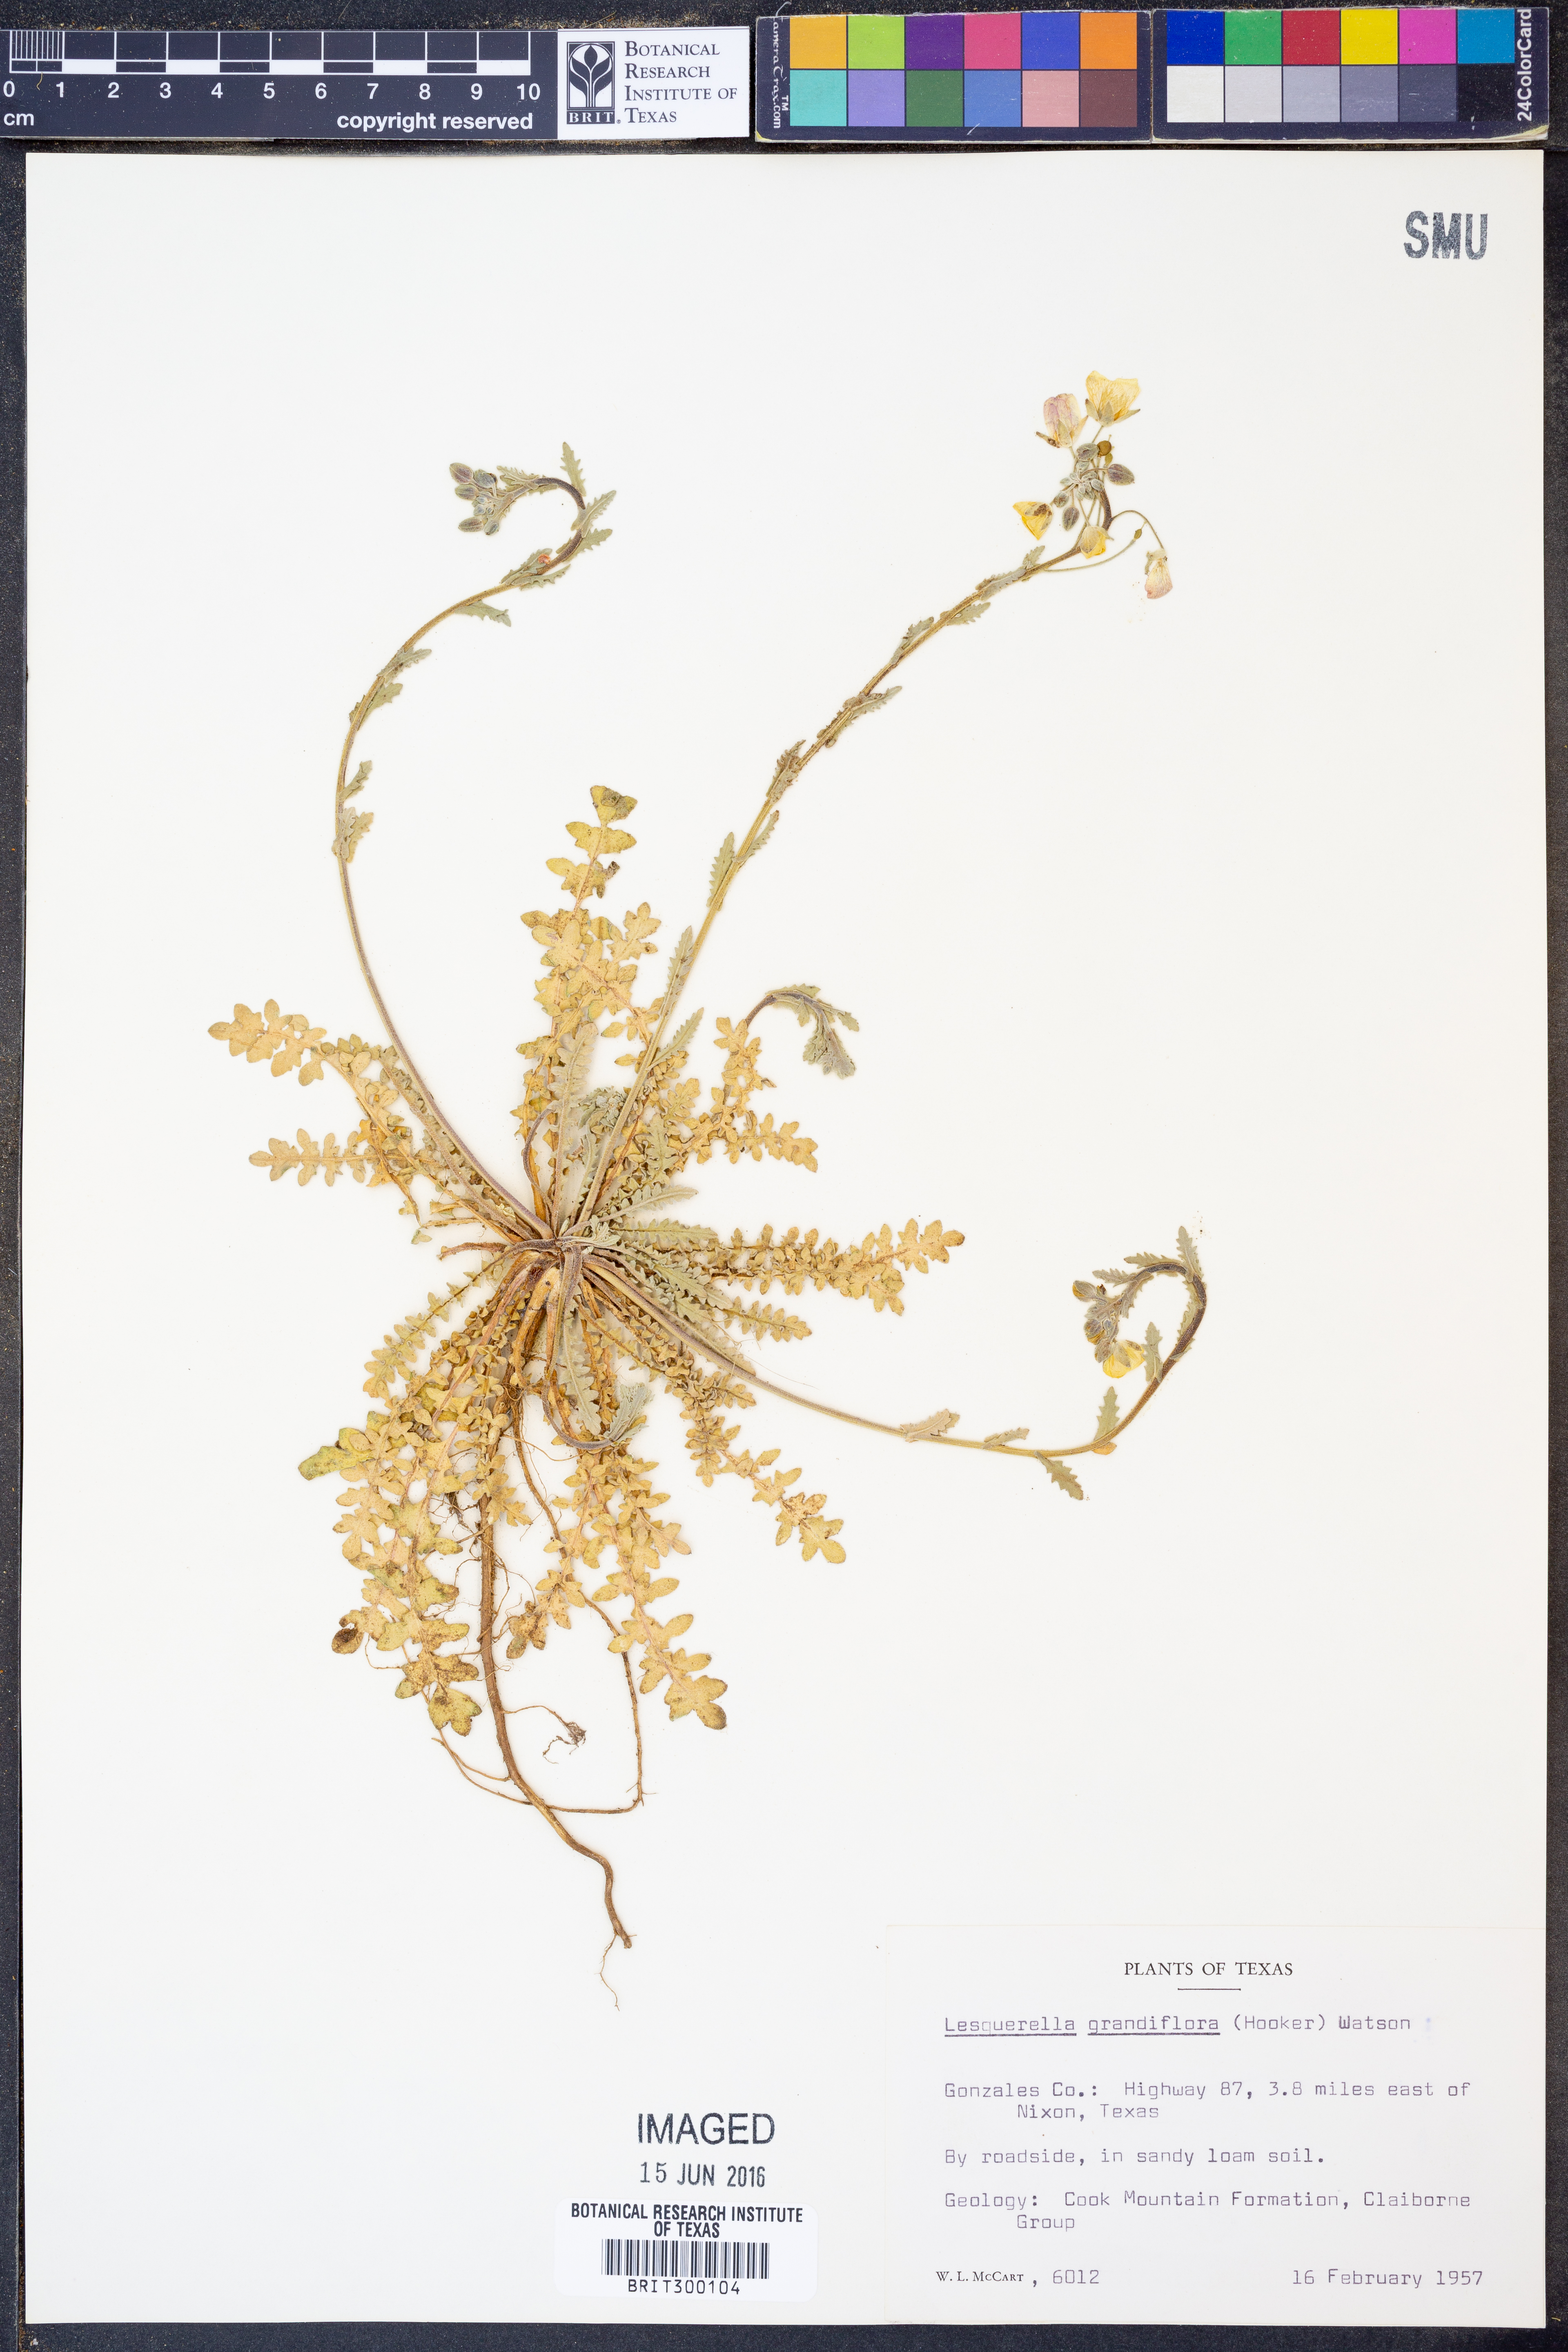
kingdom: Plantae
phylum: Tracheophyta
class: Magnoliopsida
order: Brassicales
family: Brassicaceae
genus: Paysonia
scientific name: Paysonia grandiflora
